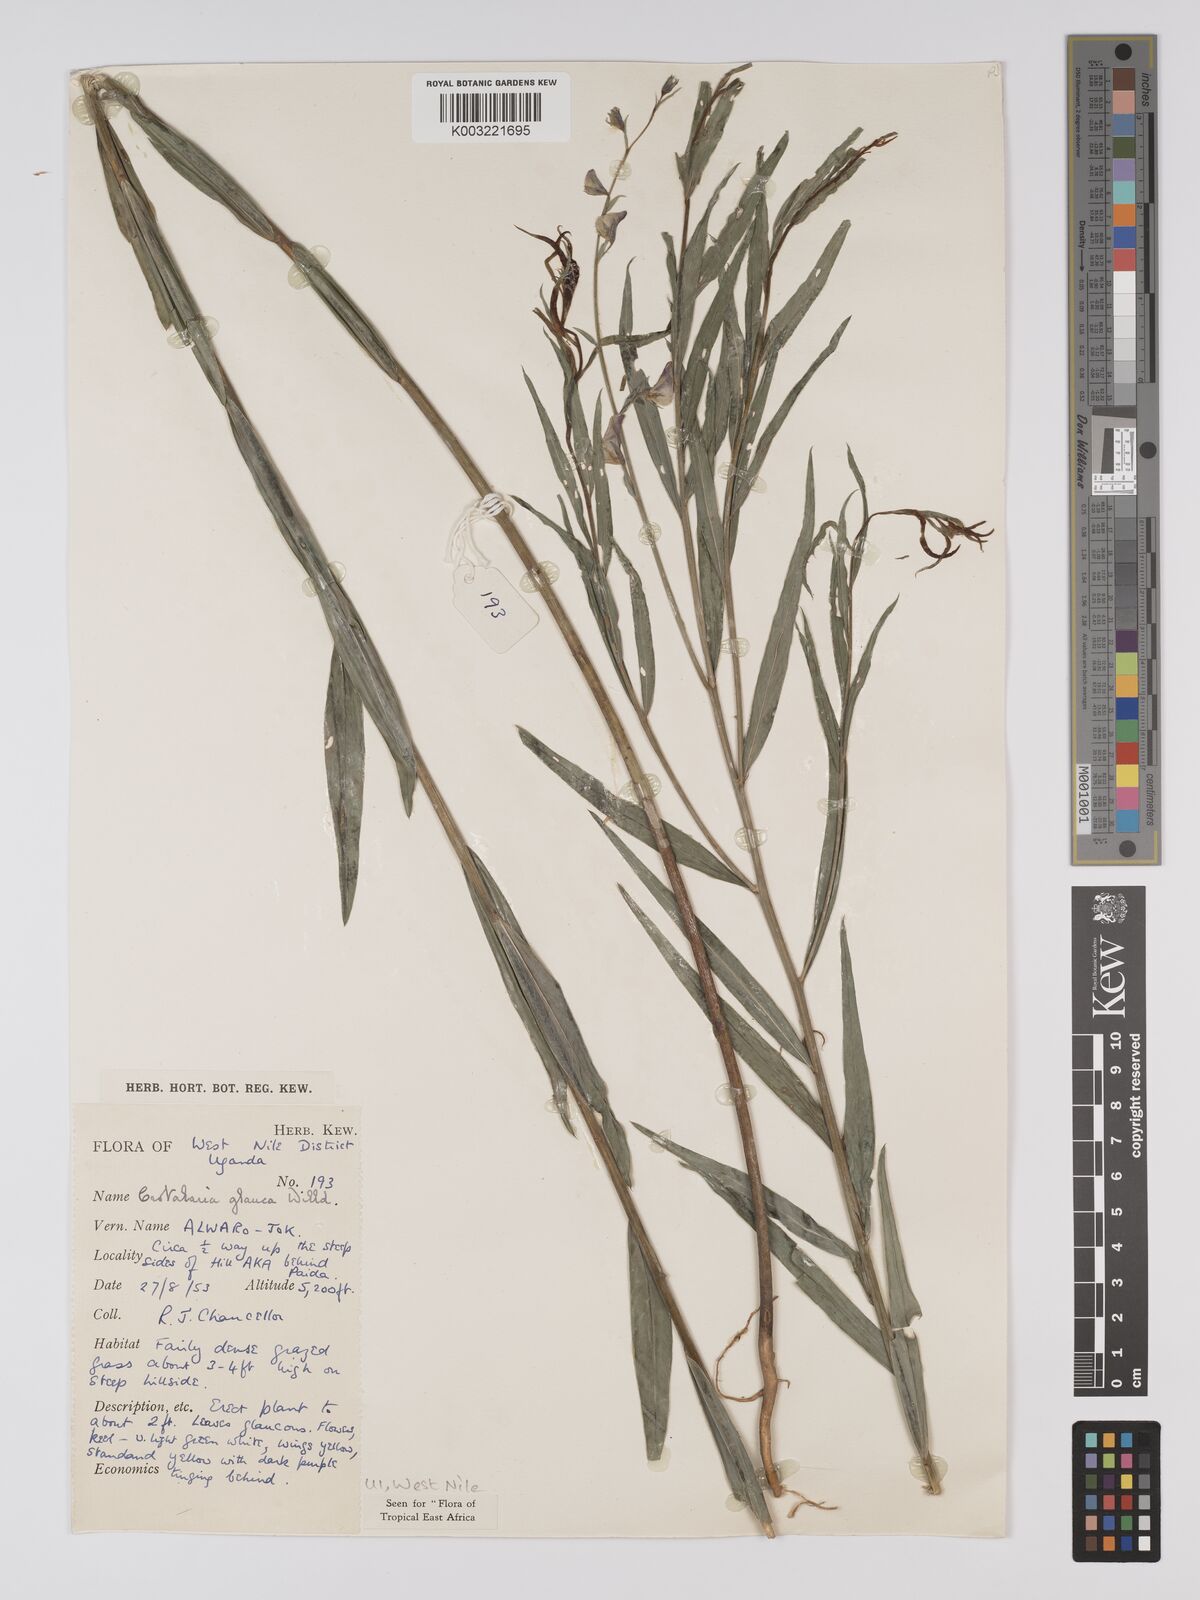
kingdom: Plantae
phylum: Tracheophyta
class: Magnoliopsida
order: Fabales
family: Fabaceae
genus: Crotalaria
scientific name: Crotalaria glauca
